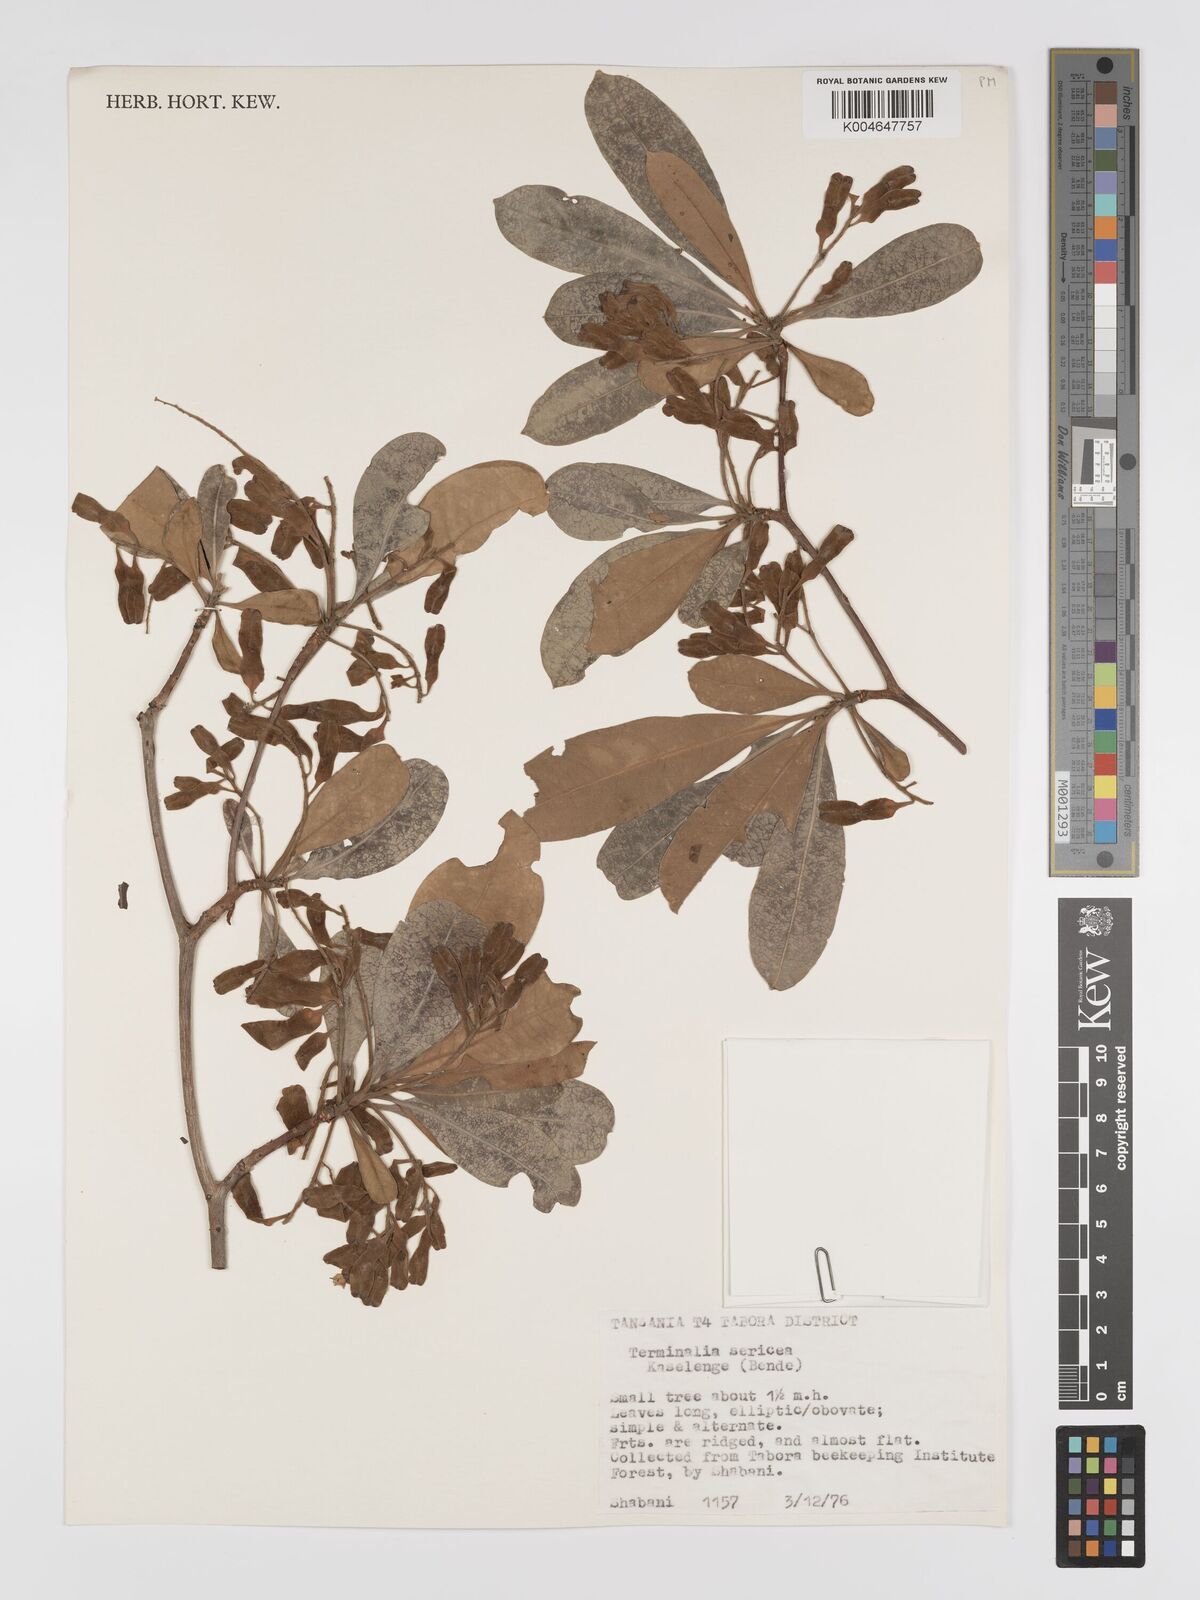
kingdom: Plantae
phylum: Tracheophyta
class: Magnoliopsida
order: Myrtales
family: Combretaceae
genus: Terminalia
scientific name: Terminalia
